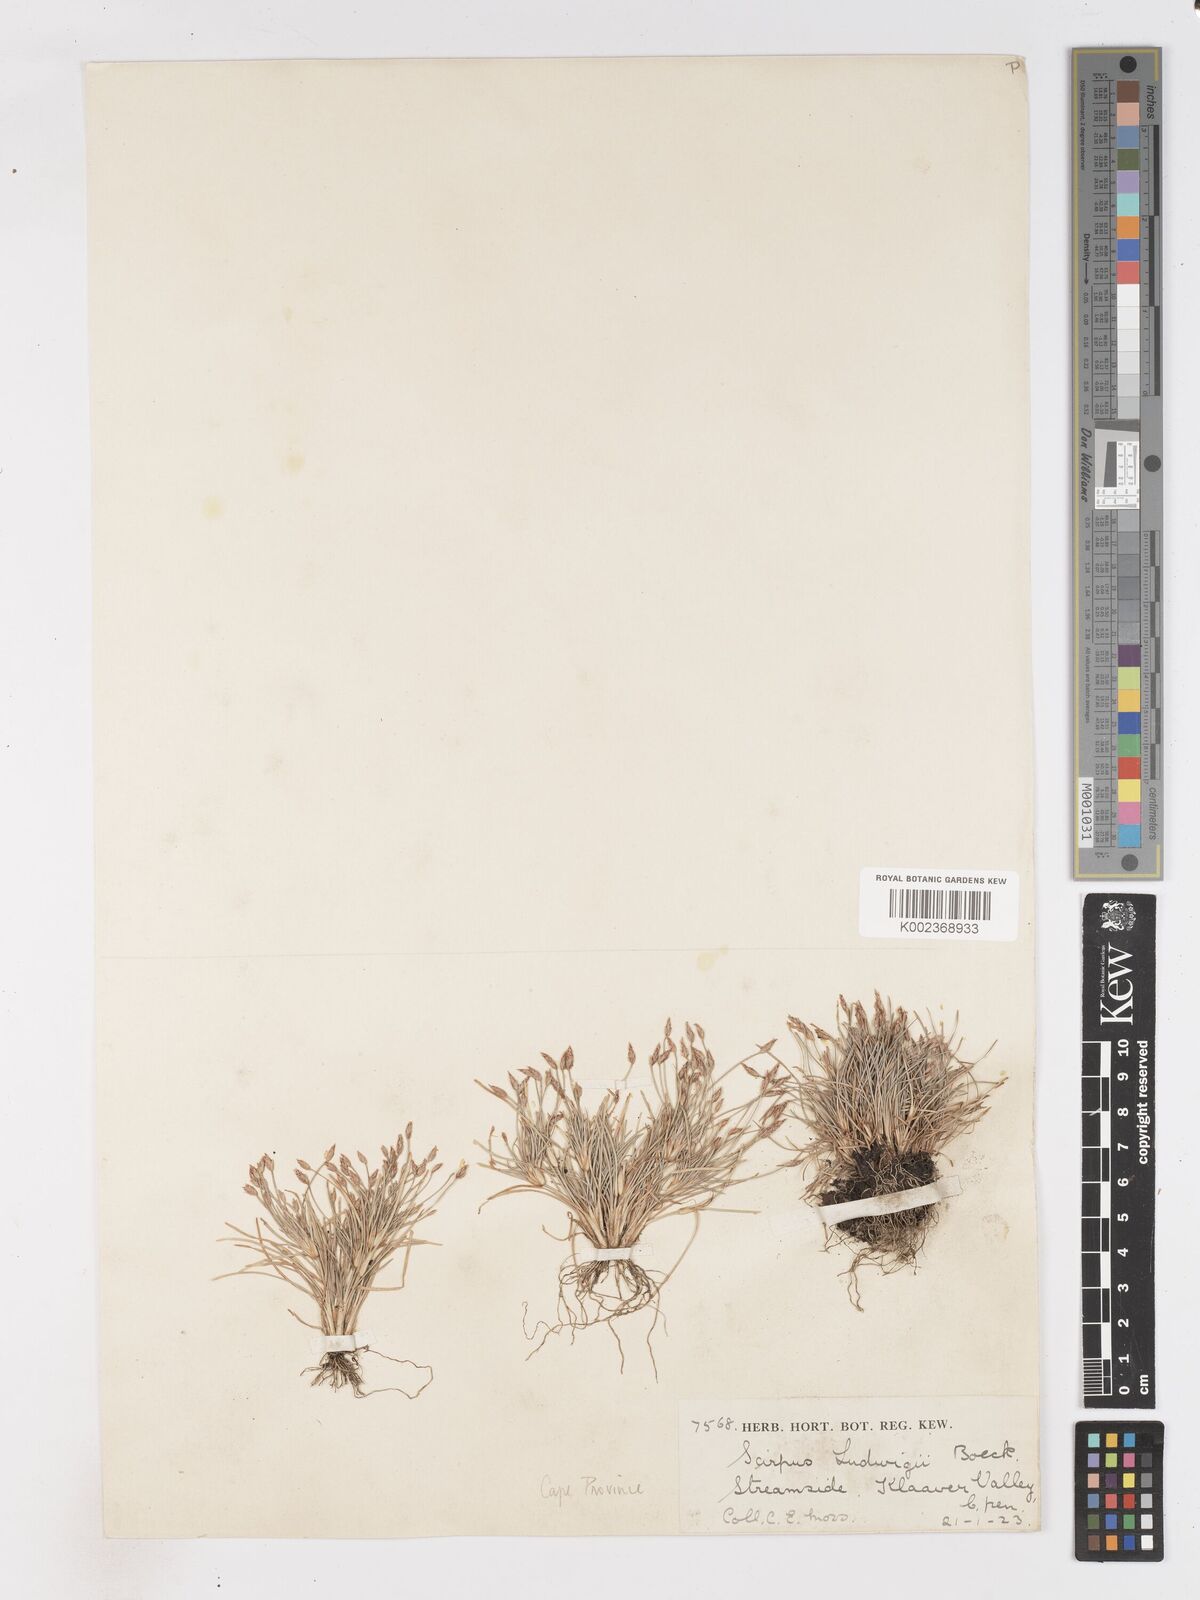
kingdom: Plantae
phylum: Tracheophyta
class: Liliopsida
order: Poales
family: Cyperaceae
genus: Isolepis
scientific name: Isolepis ludwigii
